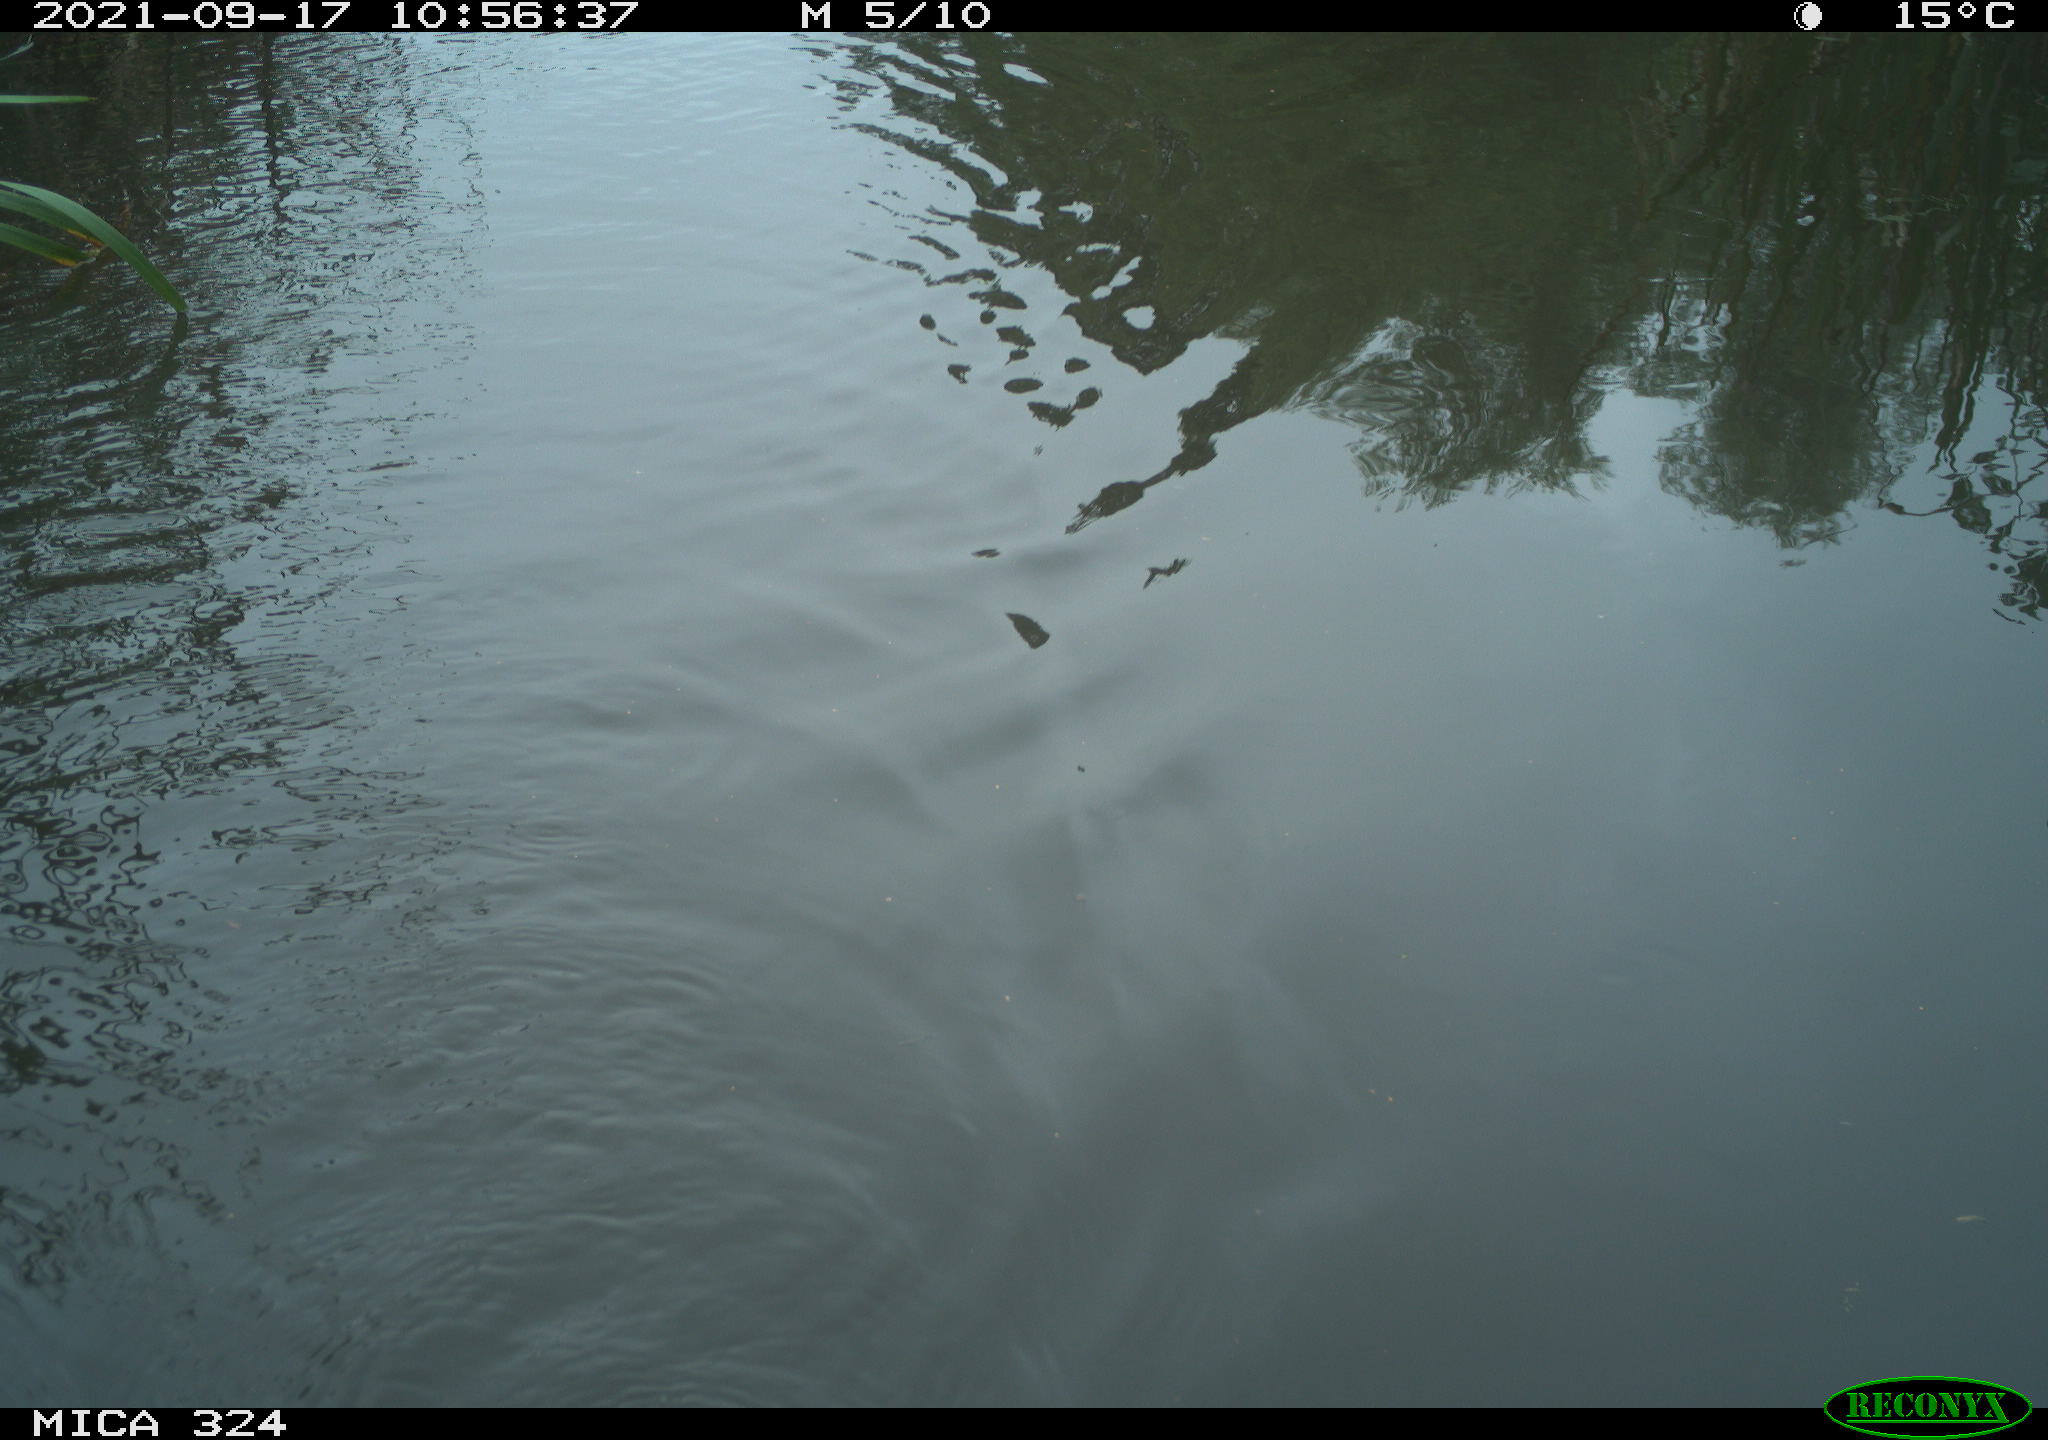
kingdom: Animalia
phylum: Chordata
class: Mammalia
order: Rodentia
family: Cricetidae
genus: Ondatra
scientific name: Ondatra zibethicus
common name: Muskrat
